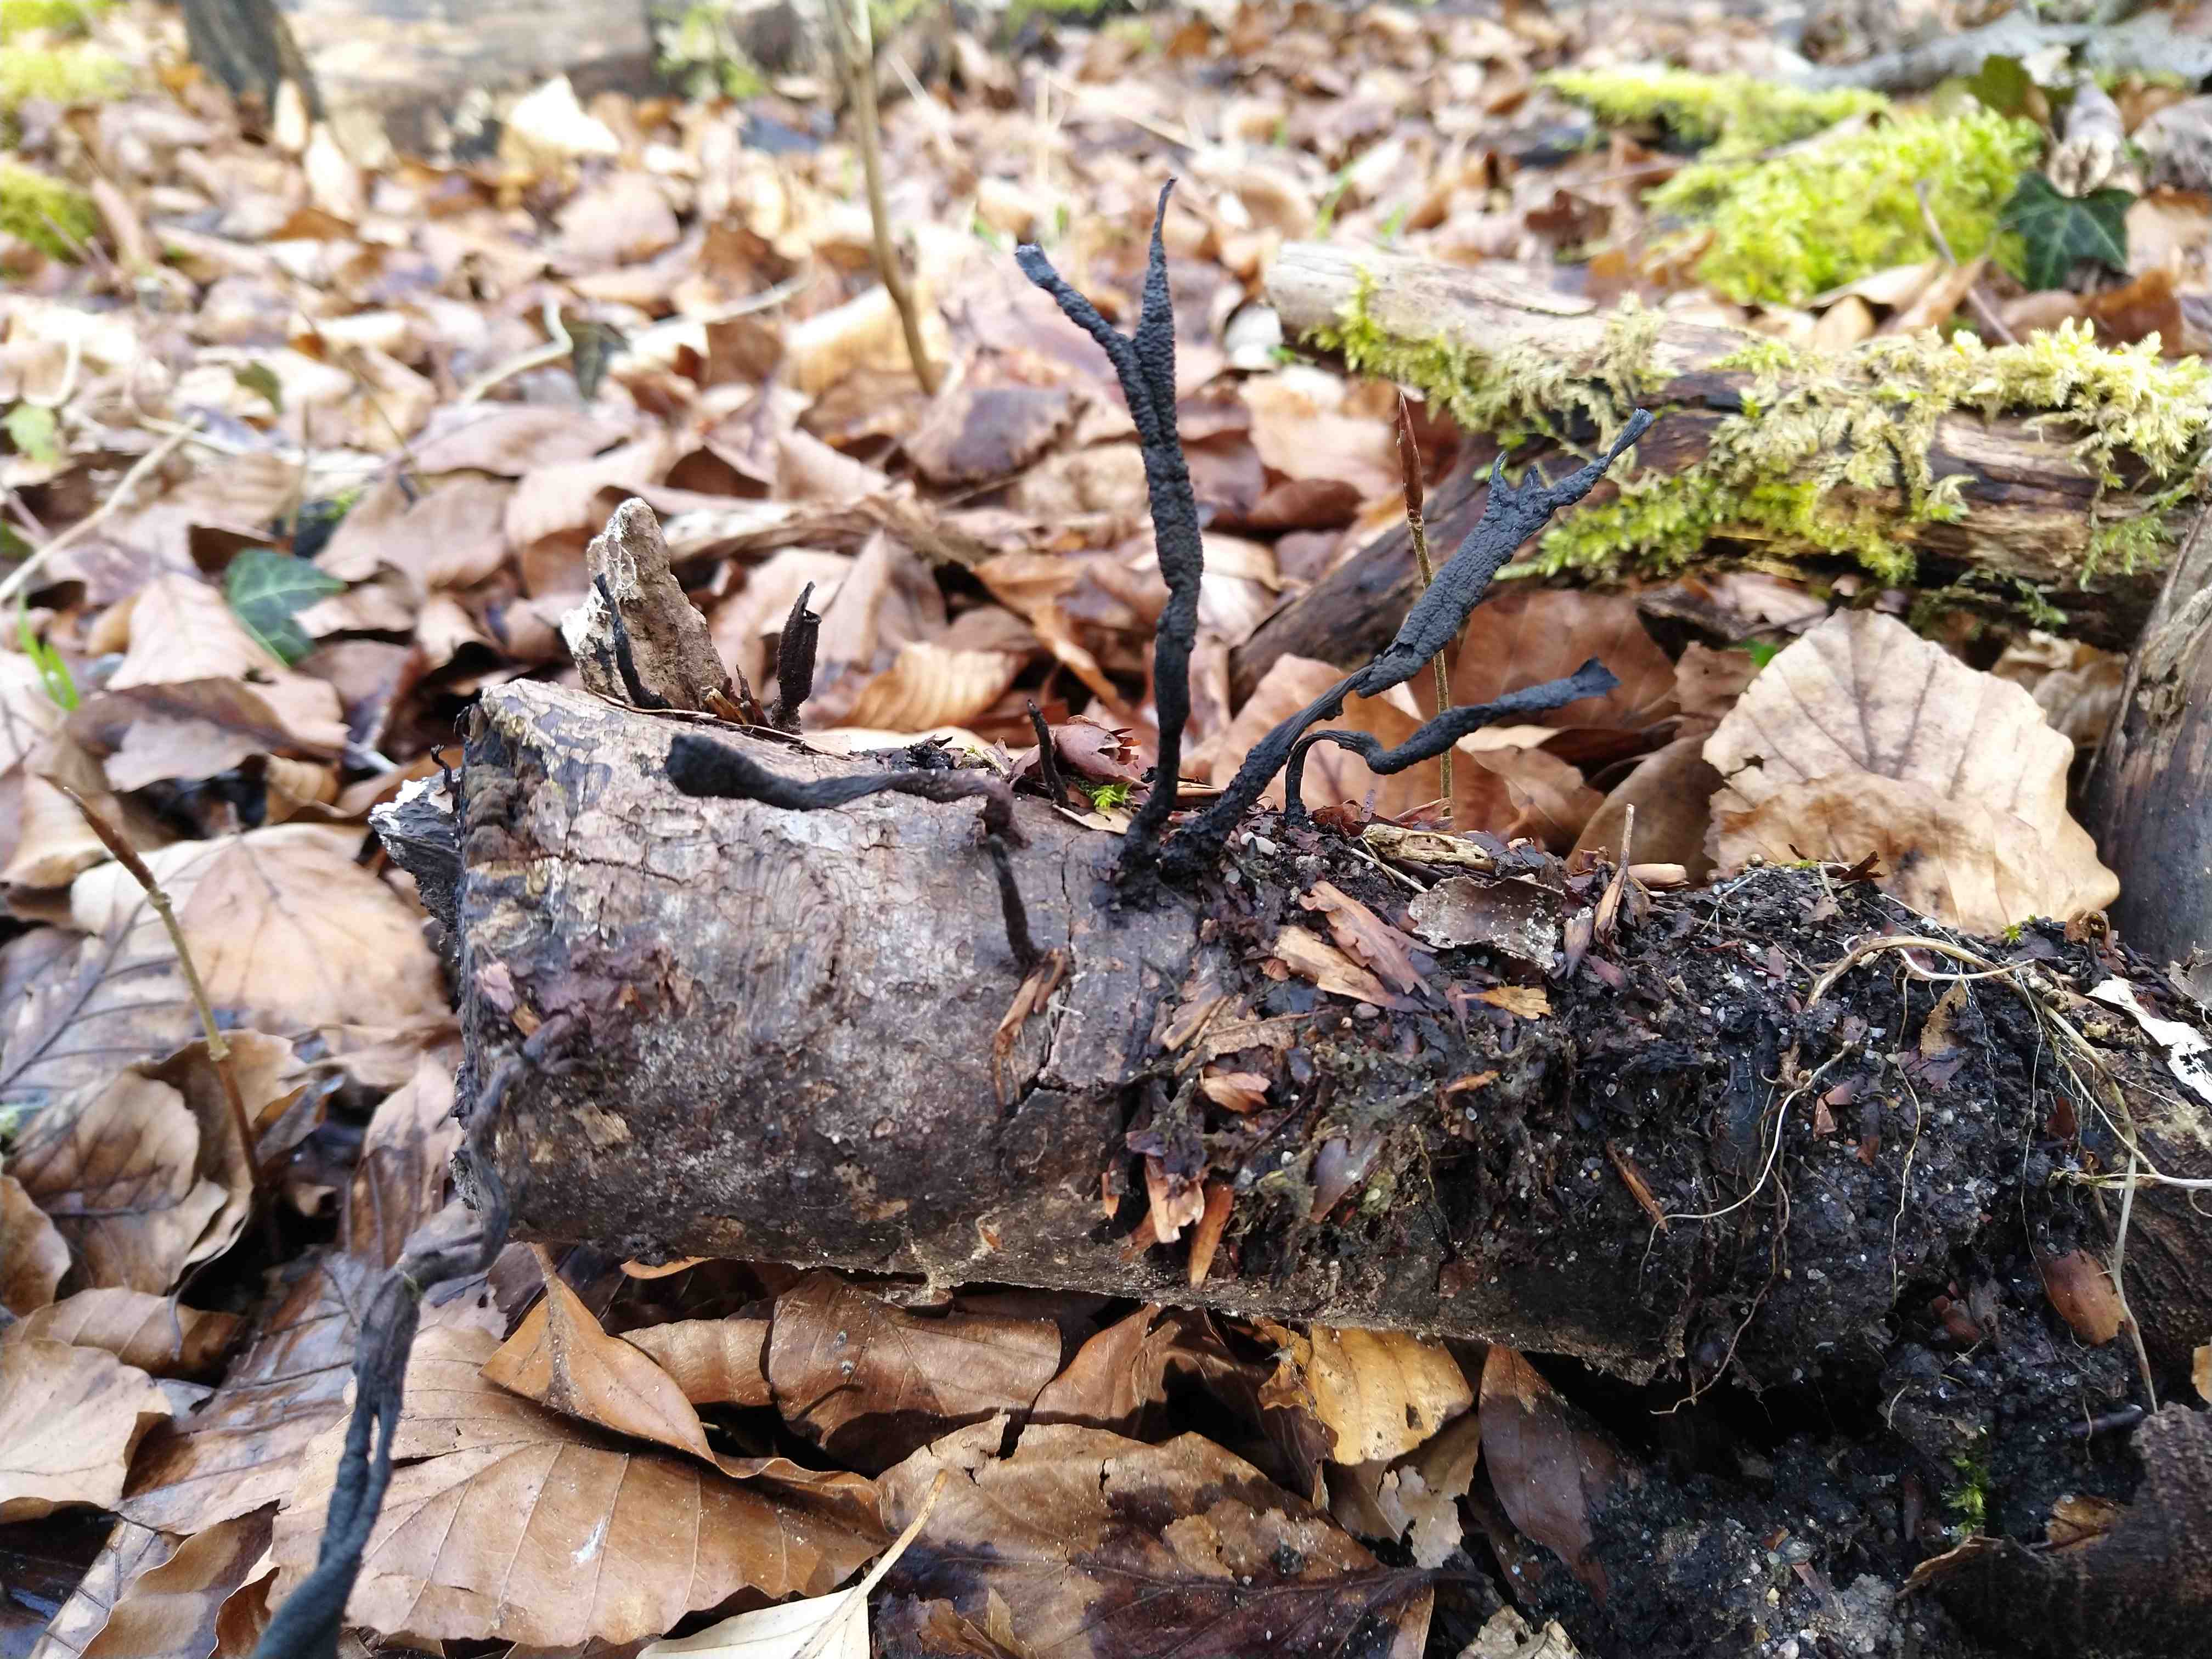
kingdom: Fungi
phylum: Ascomycota
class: Sordariomycetes
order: Xylariales
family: Xylariaceae
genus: Xylaria
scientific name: Xylaria hypoxylon
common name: grenet stødsvamp
